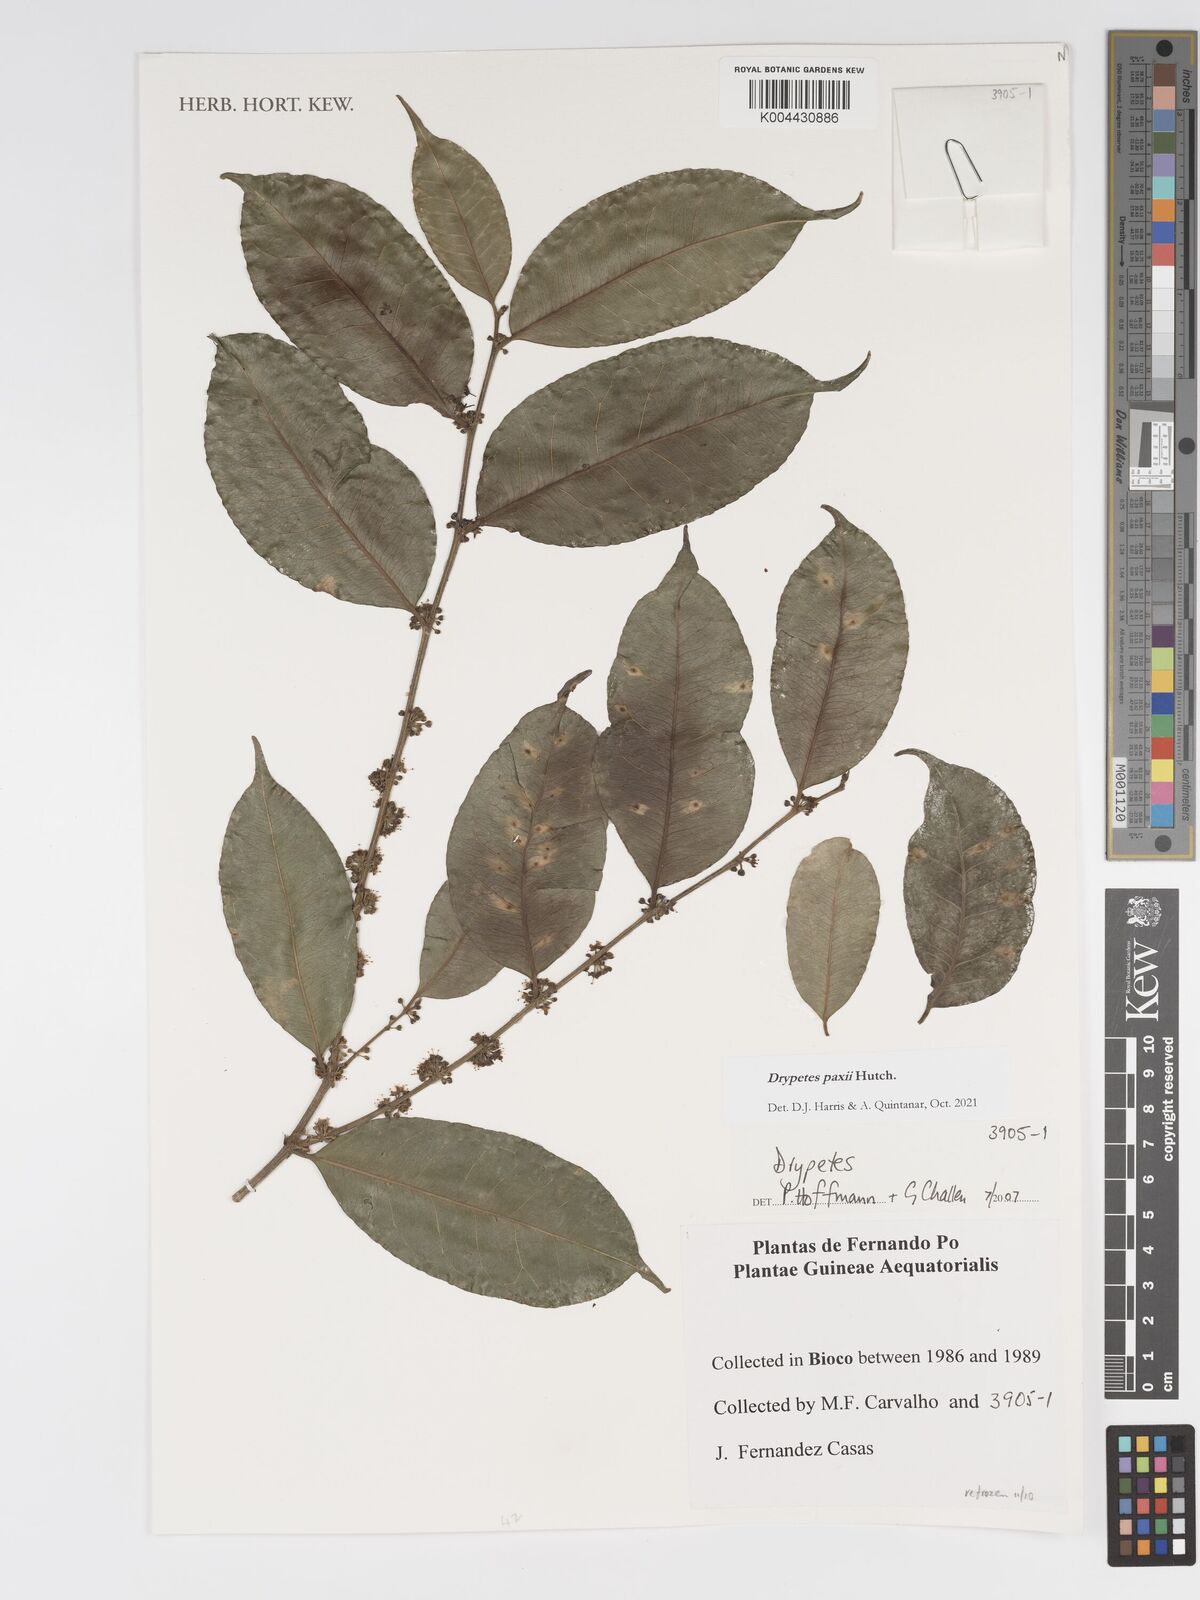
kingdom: Plantae
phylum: Tracheophyta
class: Magnoliopsida
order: Malpighiales
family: Putranjivaceae
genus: Drypetes
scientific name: Drypetes paxii
